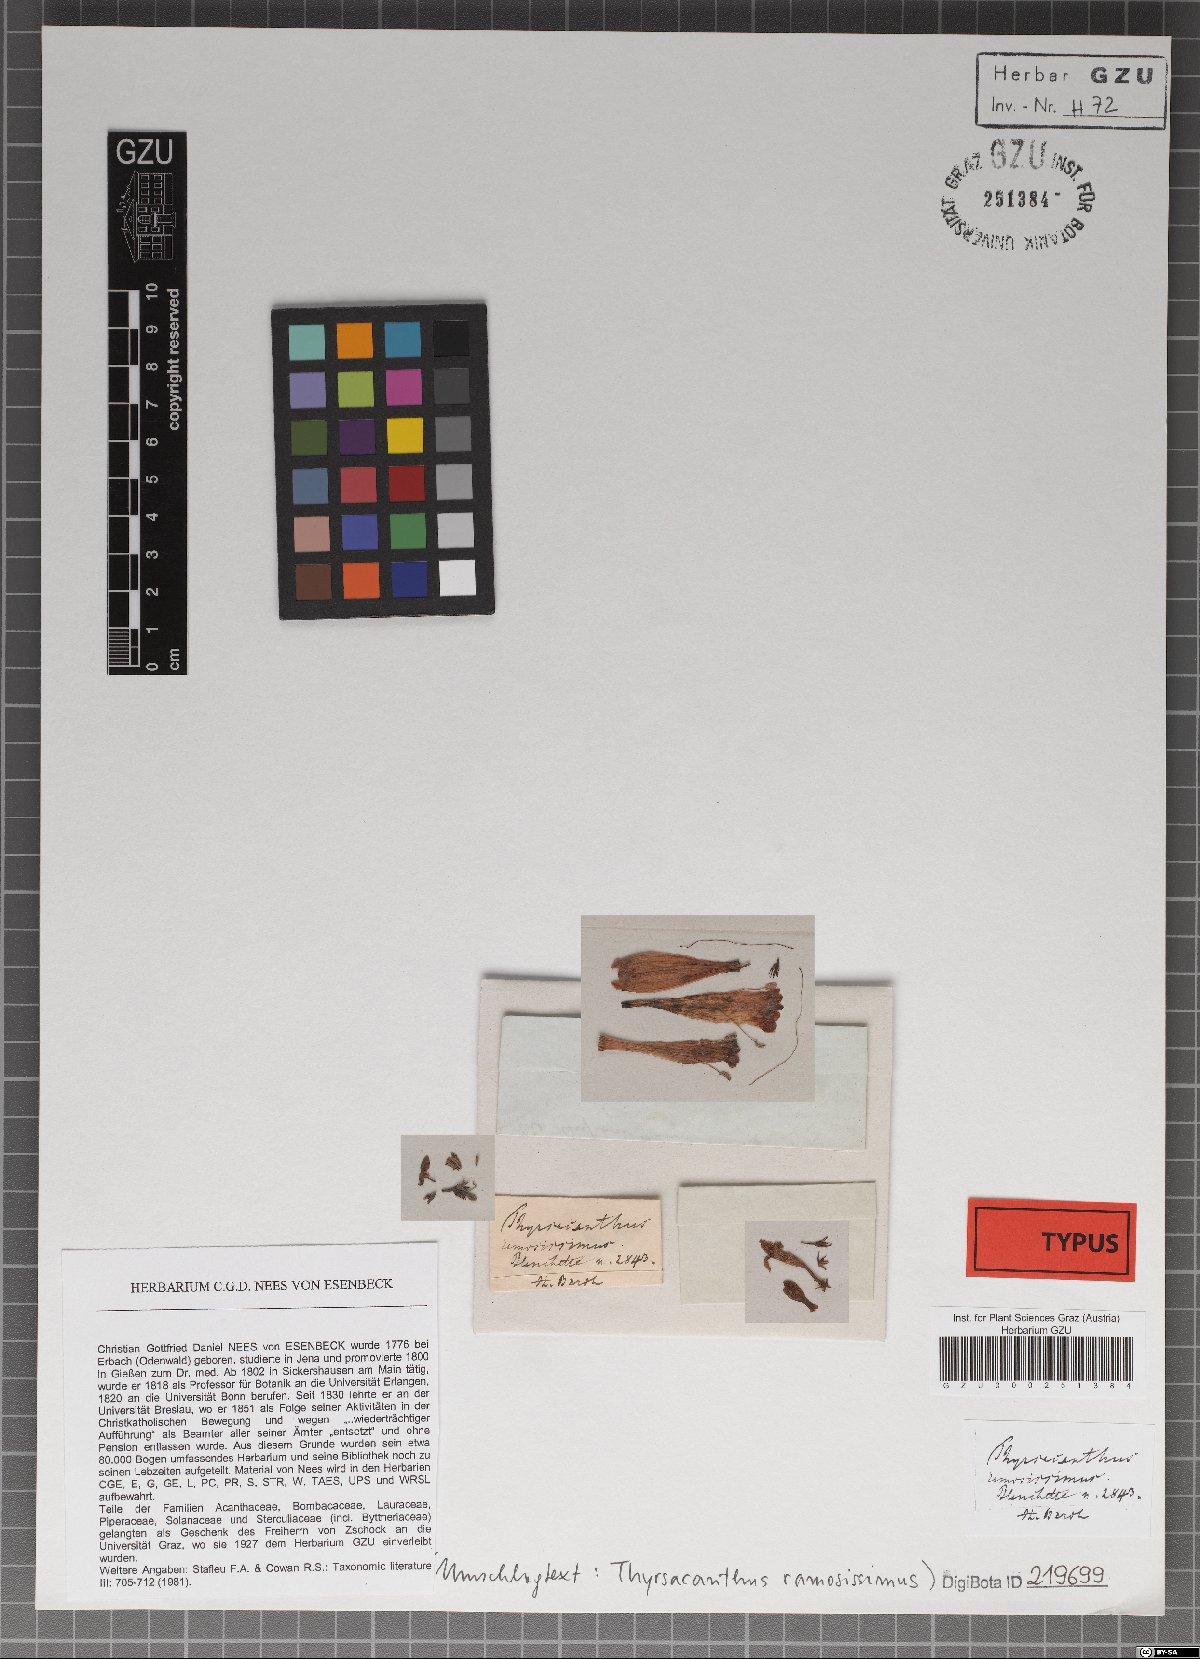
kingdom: Plantae
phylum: Tracheophyta
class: Magnoliopsida
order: Lamiales
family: Acanthaceae
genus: Thyrsacanthus
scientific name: Thyrsacanthus ramosissimus
